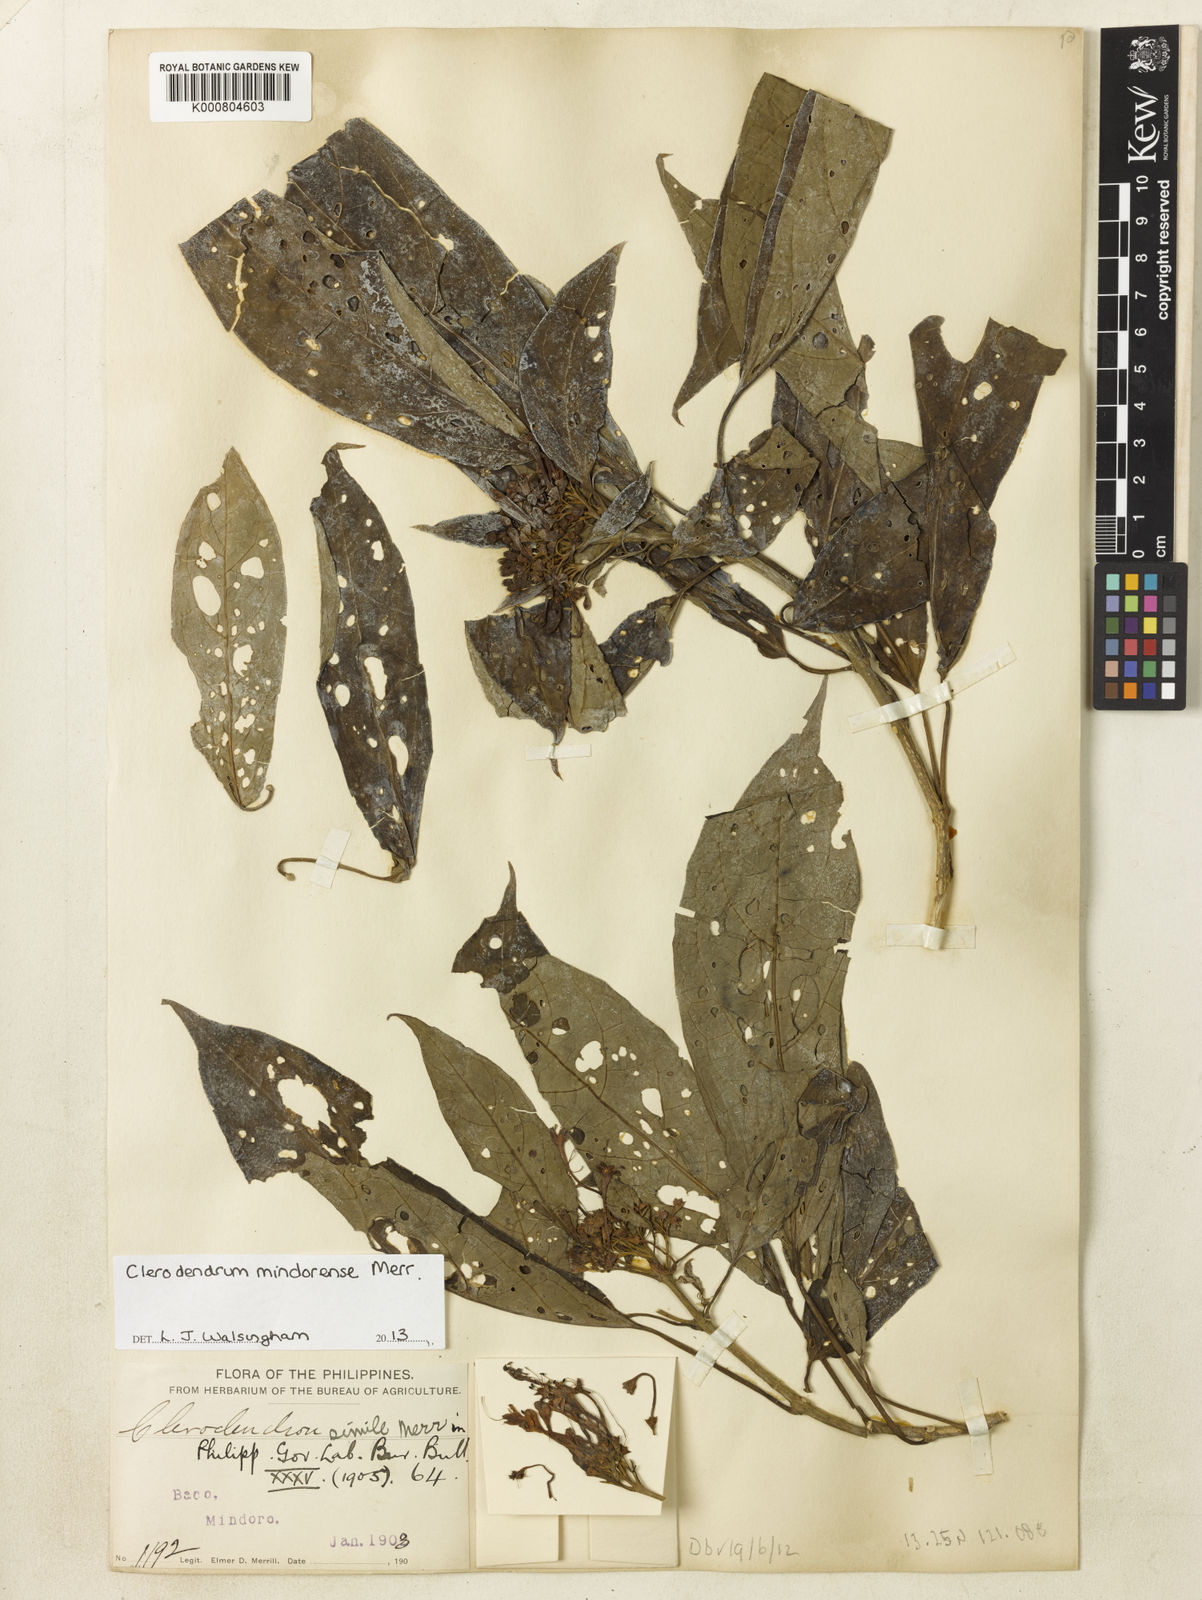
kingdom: Plantae
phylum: Tracheophyta
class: Magnoliopsida
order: Lamiales
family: Lamiaceae
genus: Clerodendrum
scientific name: Clerodendrum mindorense
